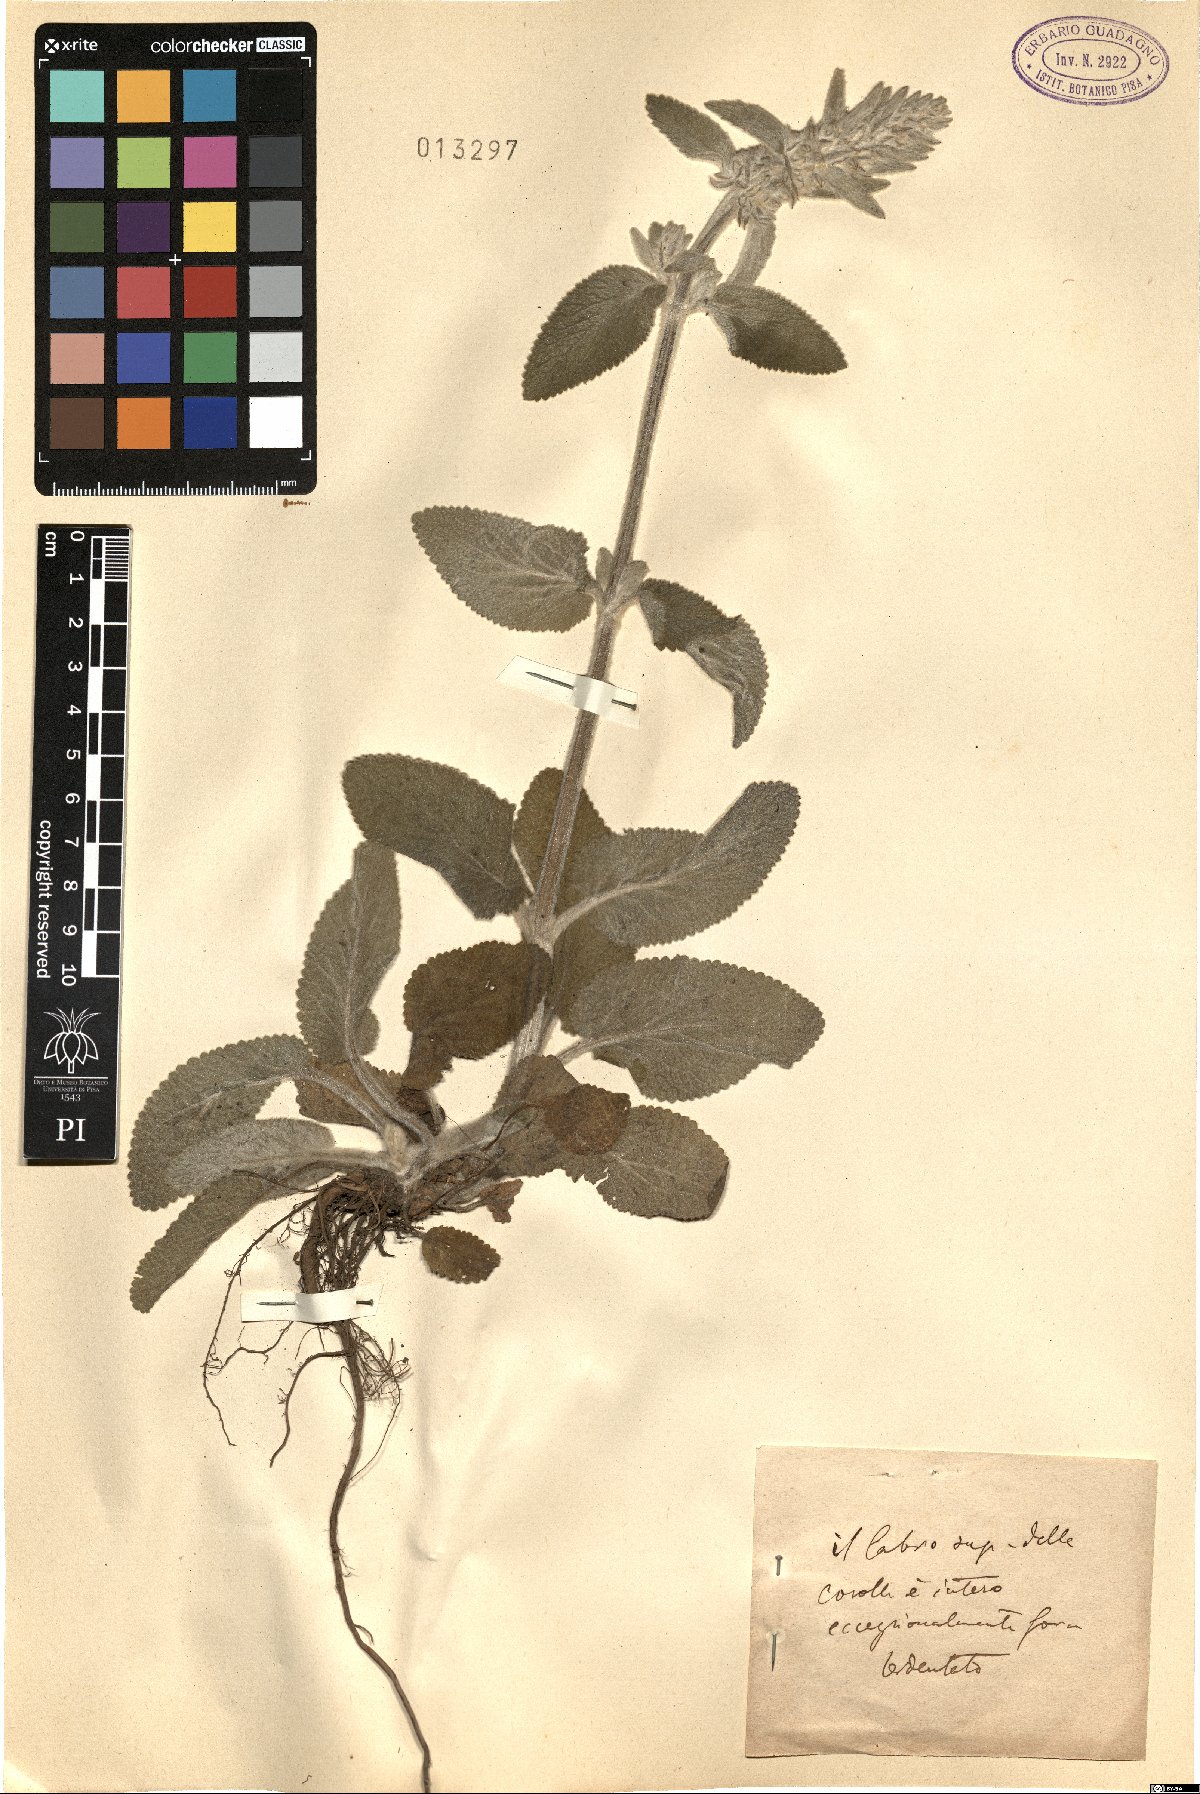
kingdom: Plantae
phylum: Tracheophyta
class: Magnoliopsida
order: Lamiales
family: Lamiaceae
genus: Stachys
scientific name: Stachys
